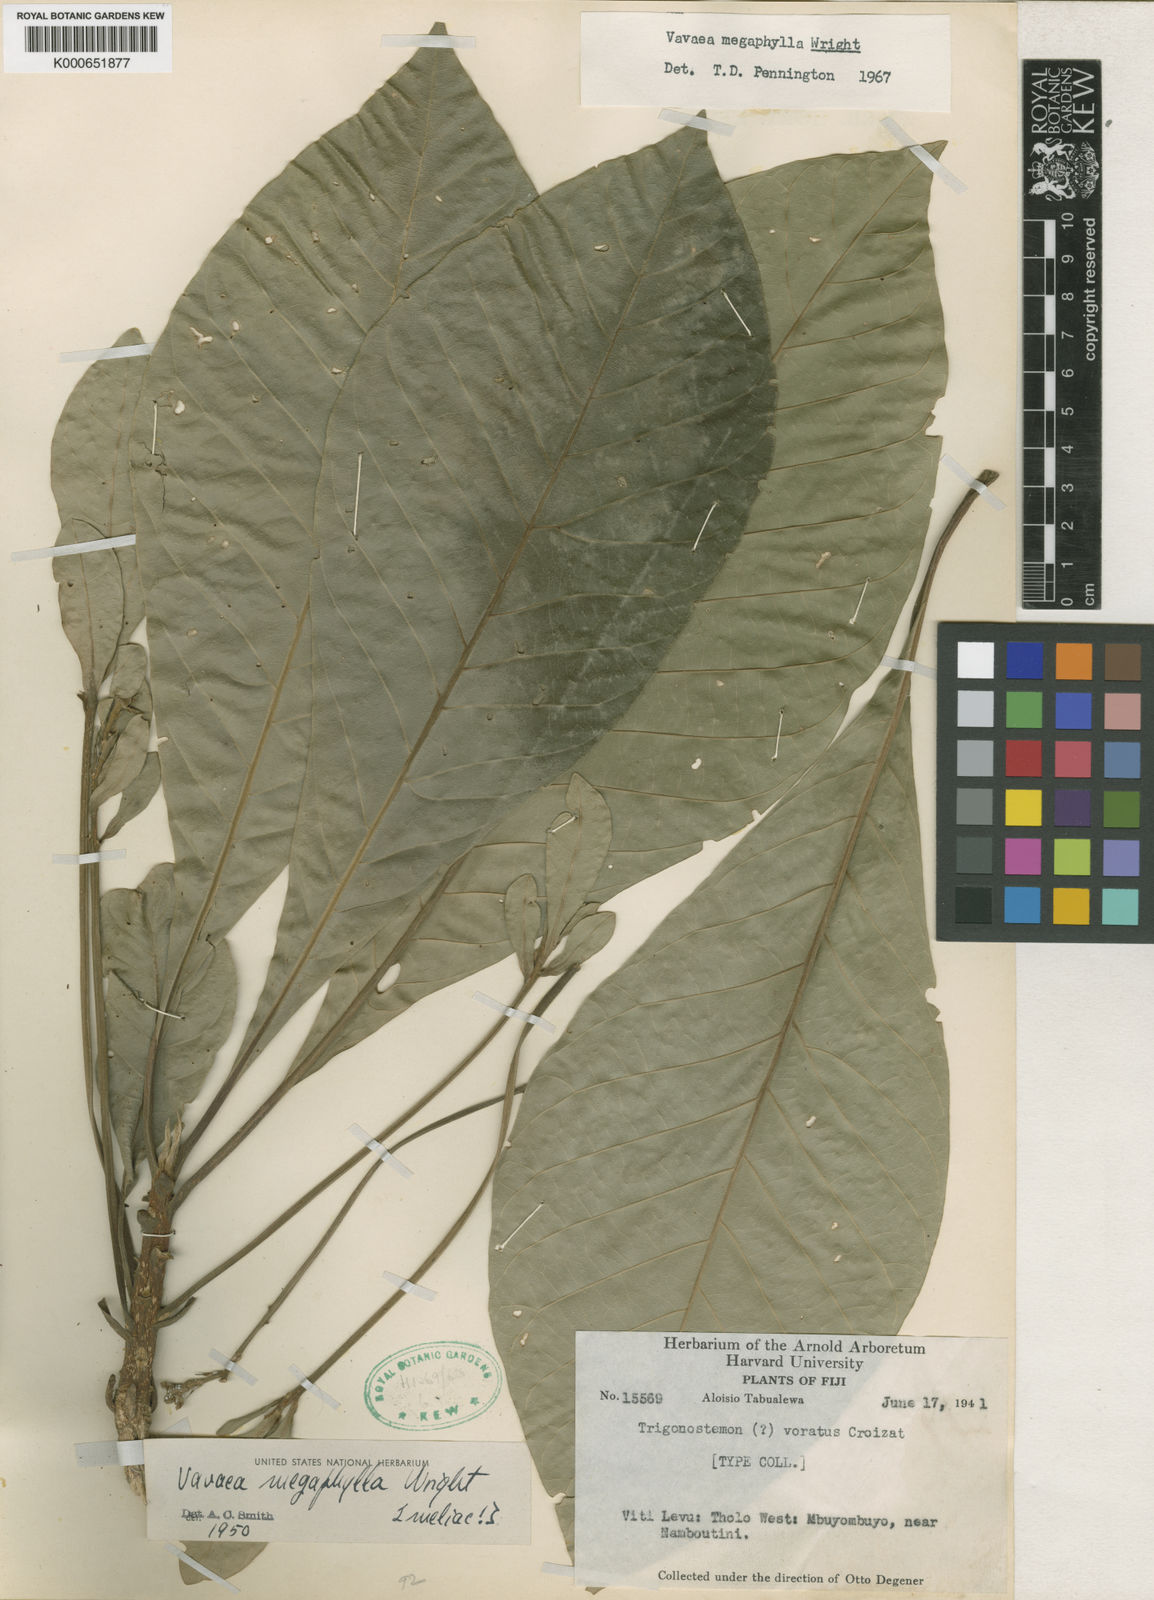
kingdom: Plantae
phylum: Tracheophyta
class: Magnoliopsida
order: Sapindales
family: Meliaceae
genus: Vavaea
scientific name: Vavaea megaphylla
